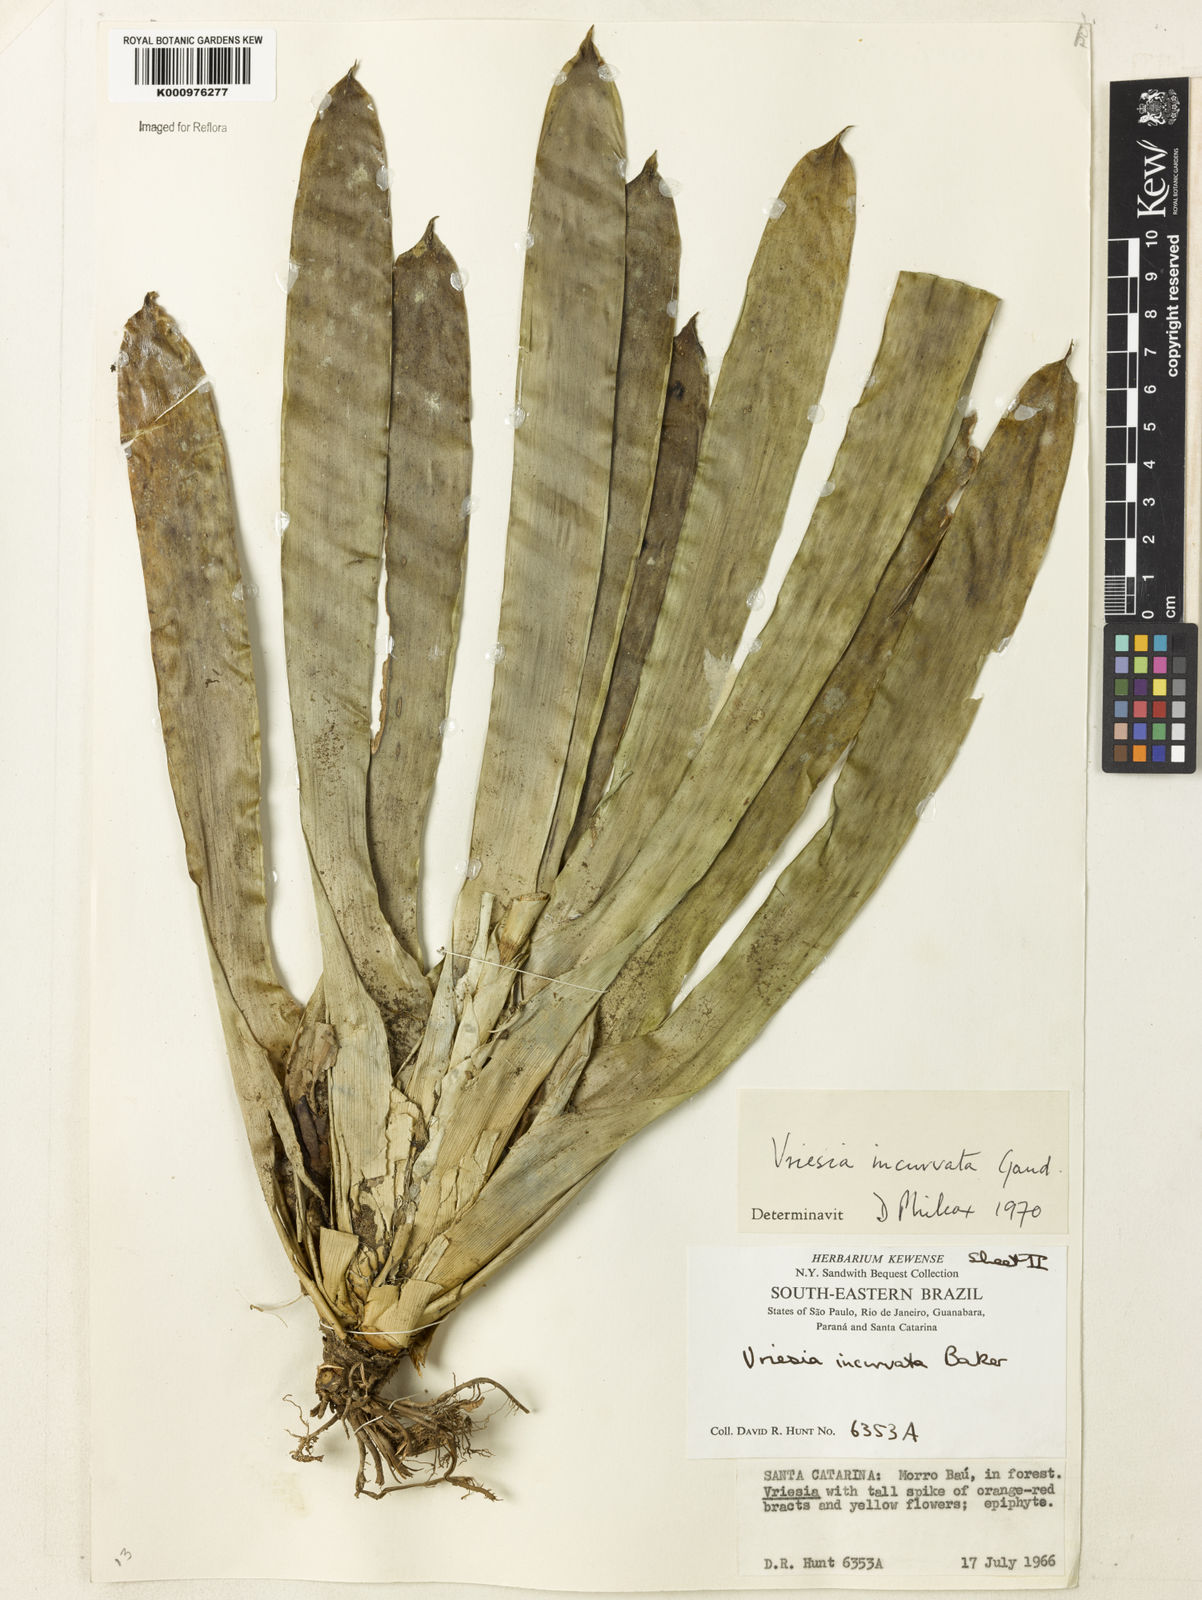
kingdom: Plantae
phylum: Tracheophyta
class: Liliopsida
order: Poales
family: Bromeliaceae
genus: Vriesea
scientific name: Vriesea incurvata
